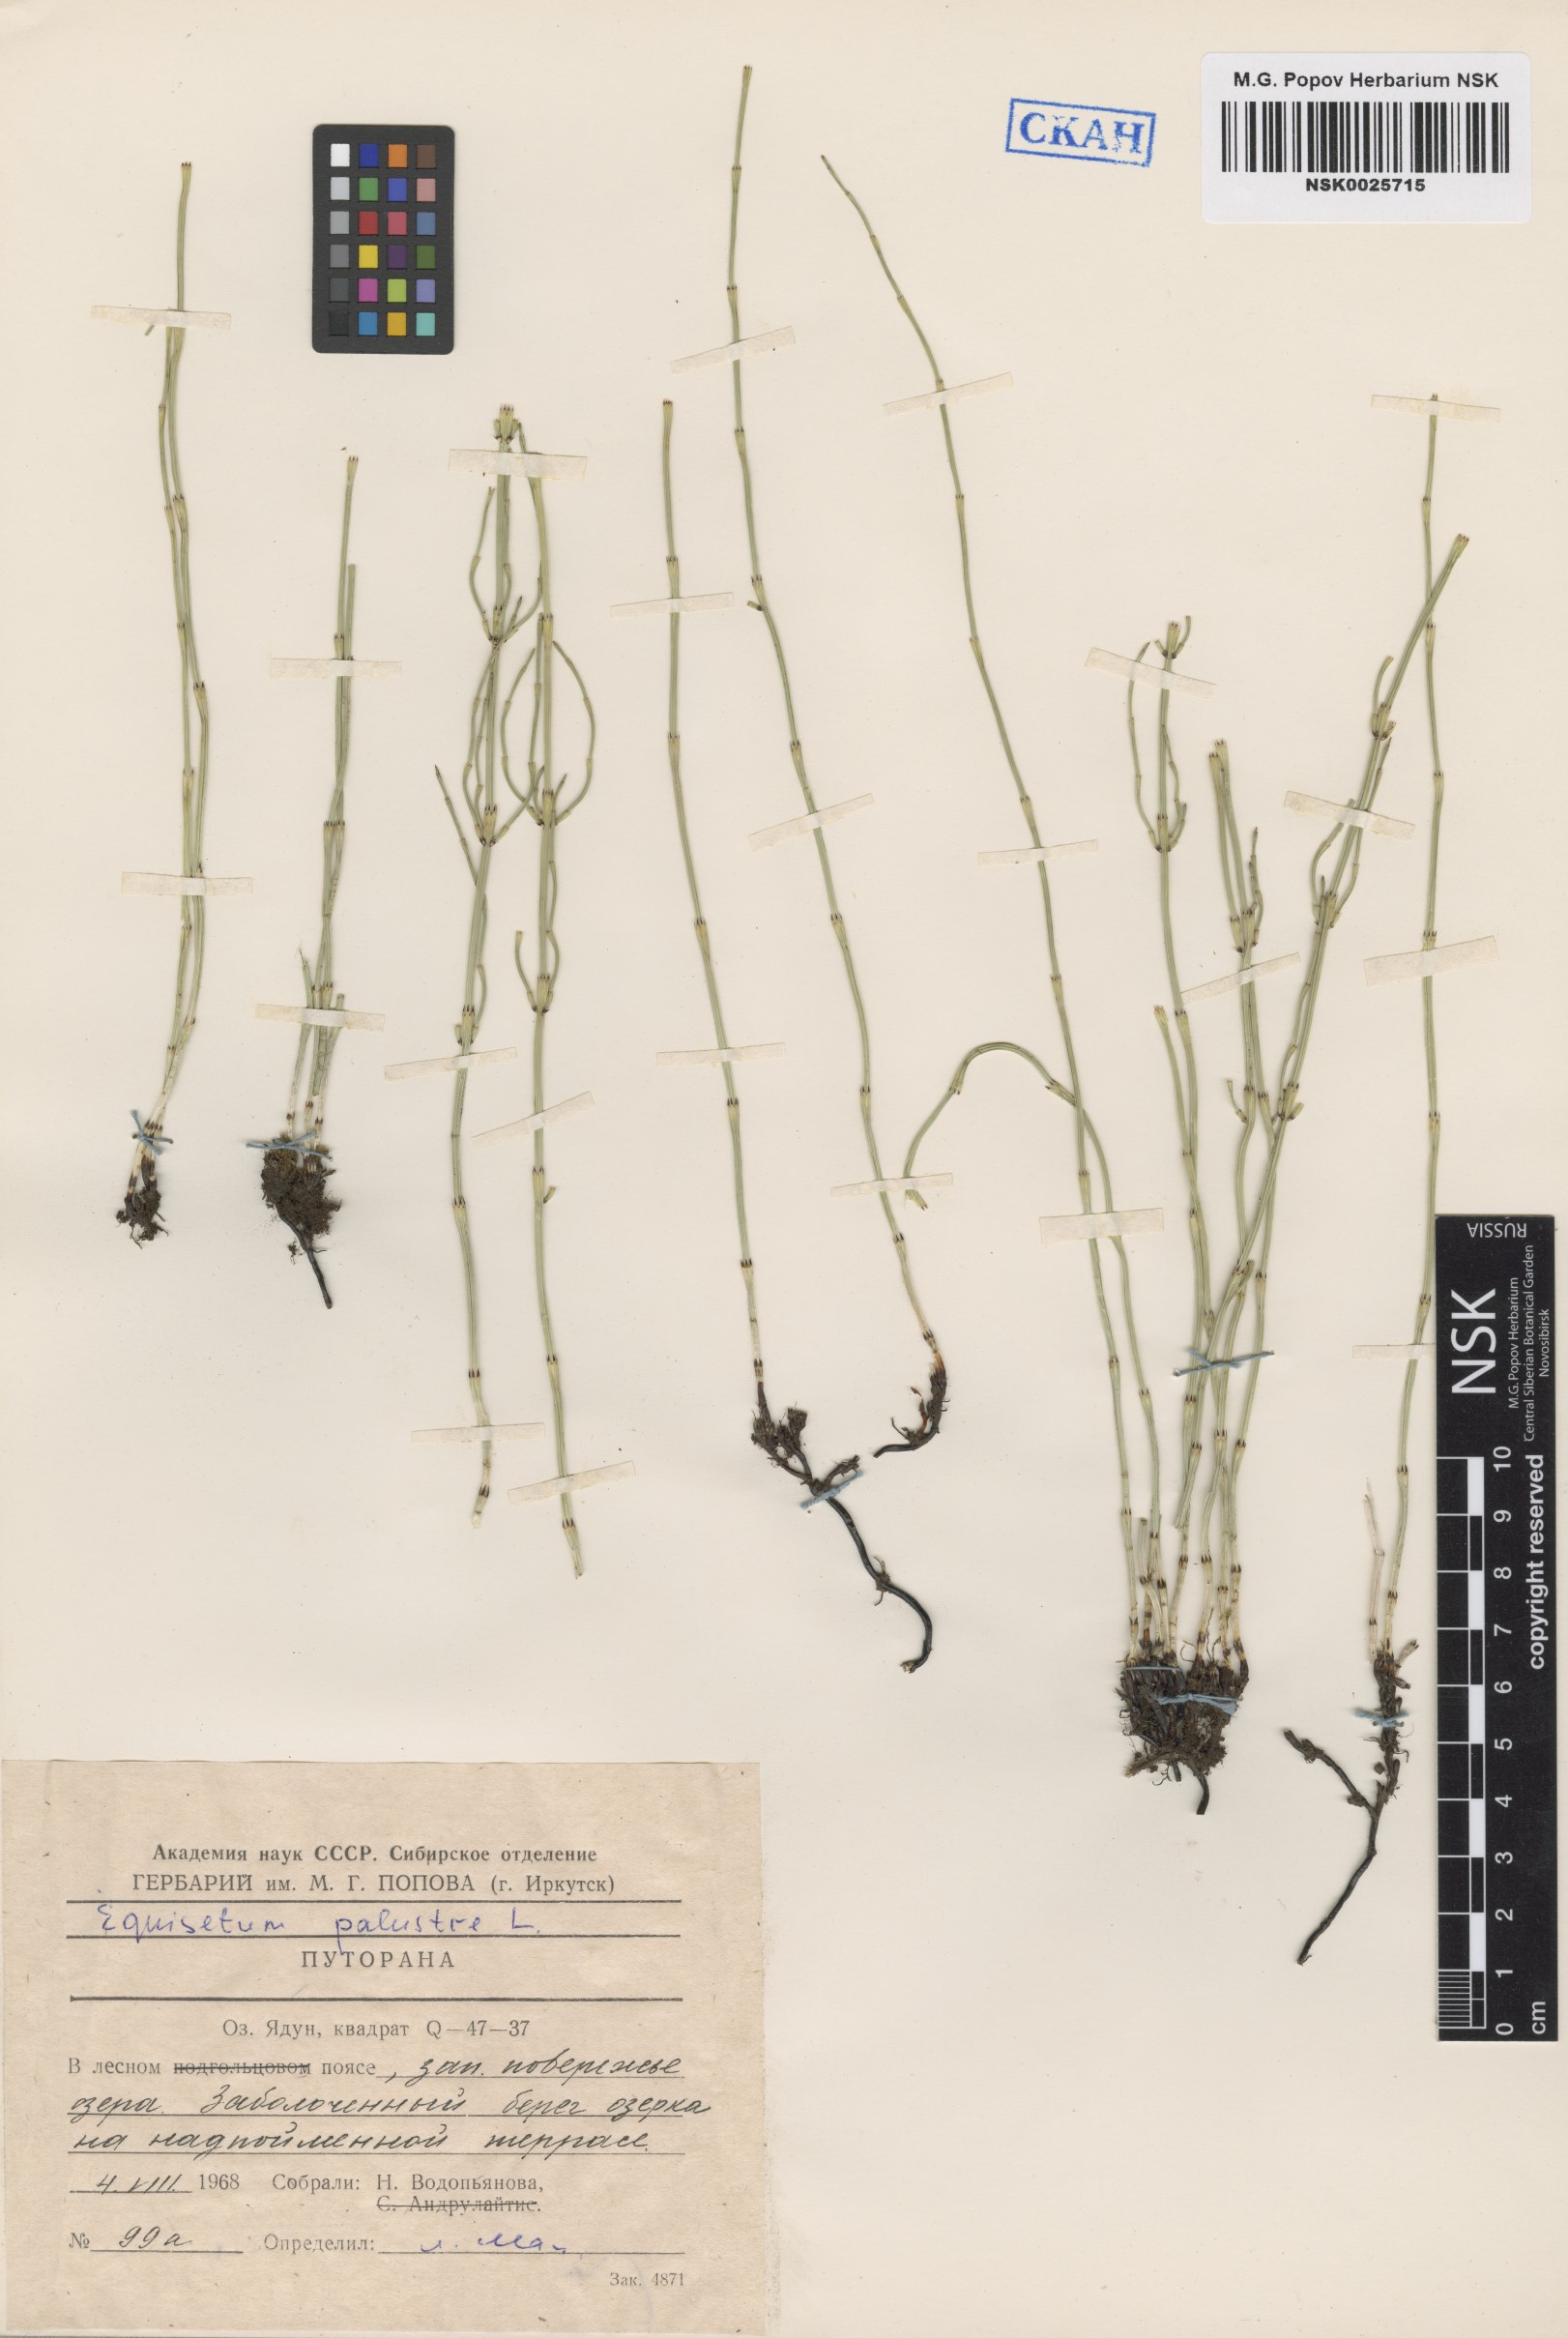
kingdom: Plantae
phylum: Tracheophyta
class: Polypodiopsida
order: Equisetales
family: Equisetaceae
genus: Equisetum
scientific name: Equisetum palustre
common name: Marsh horsetail
